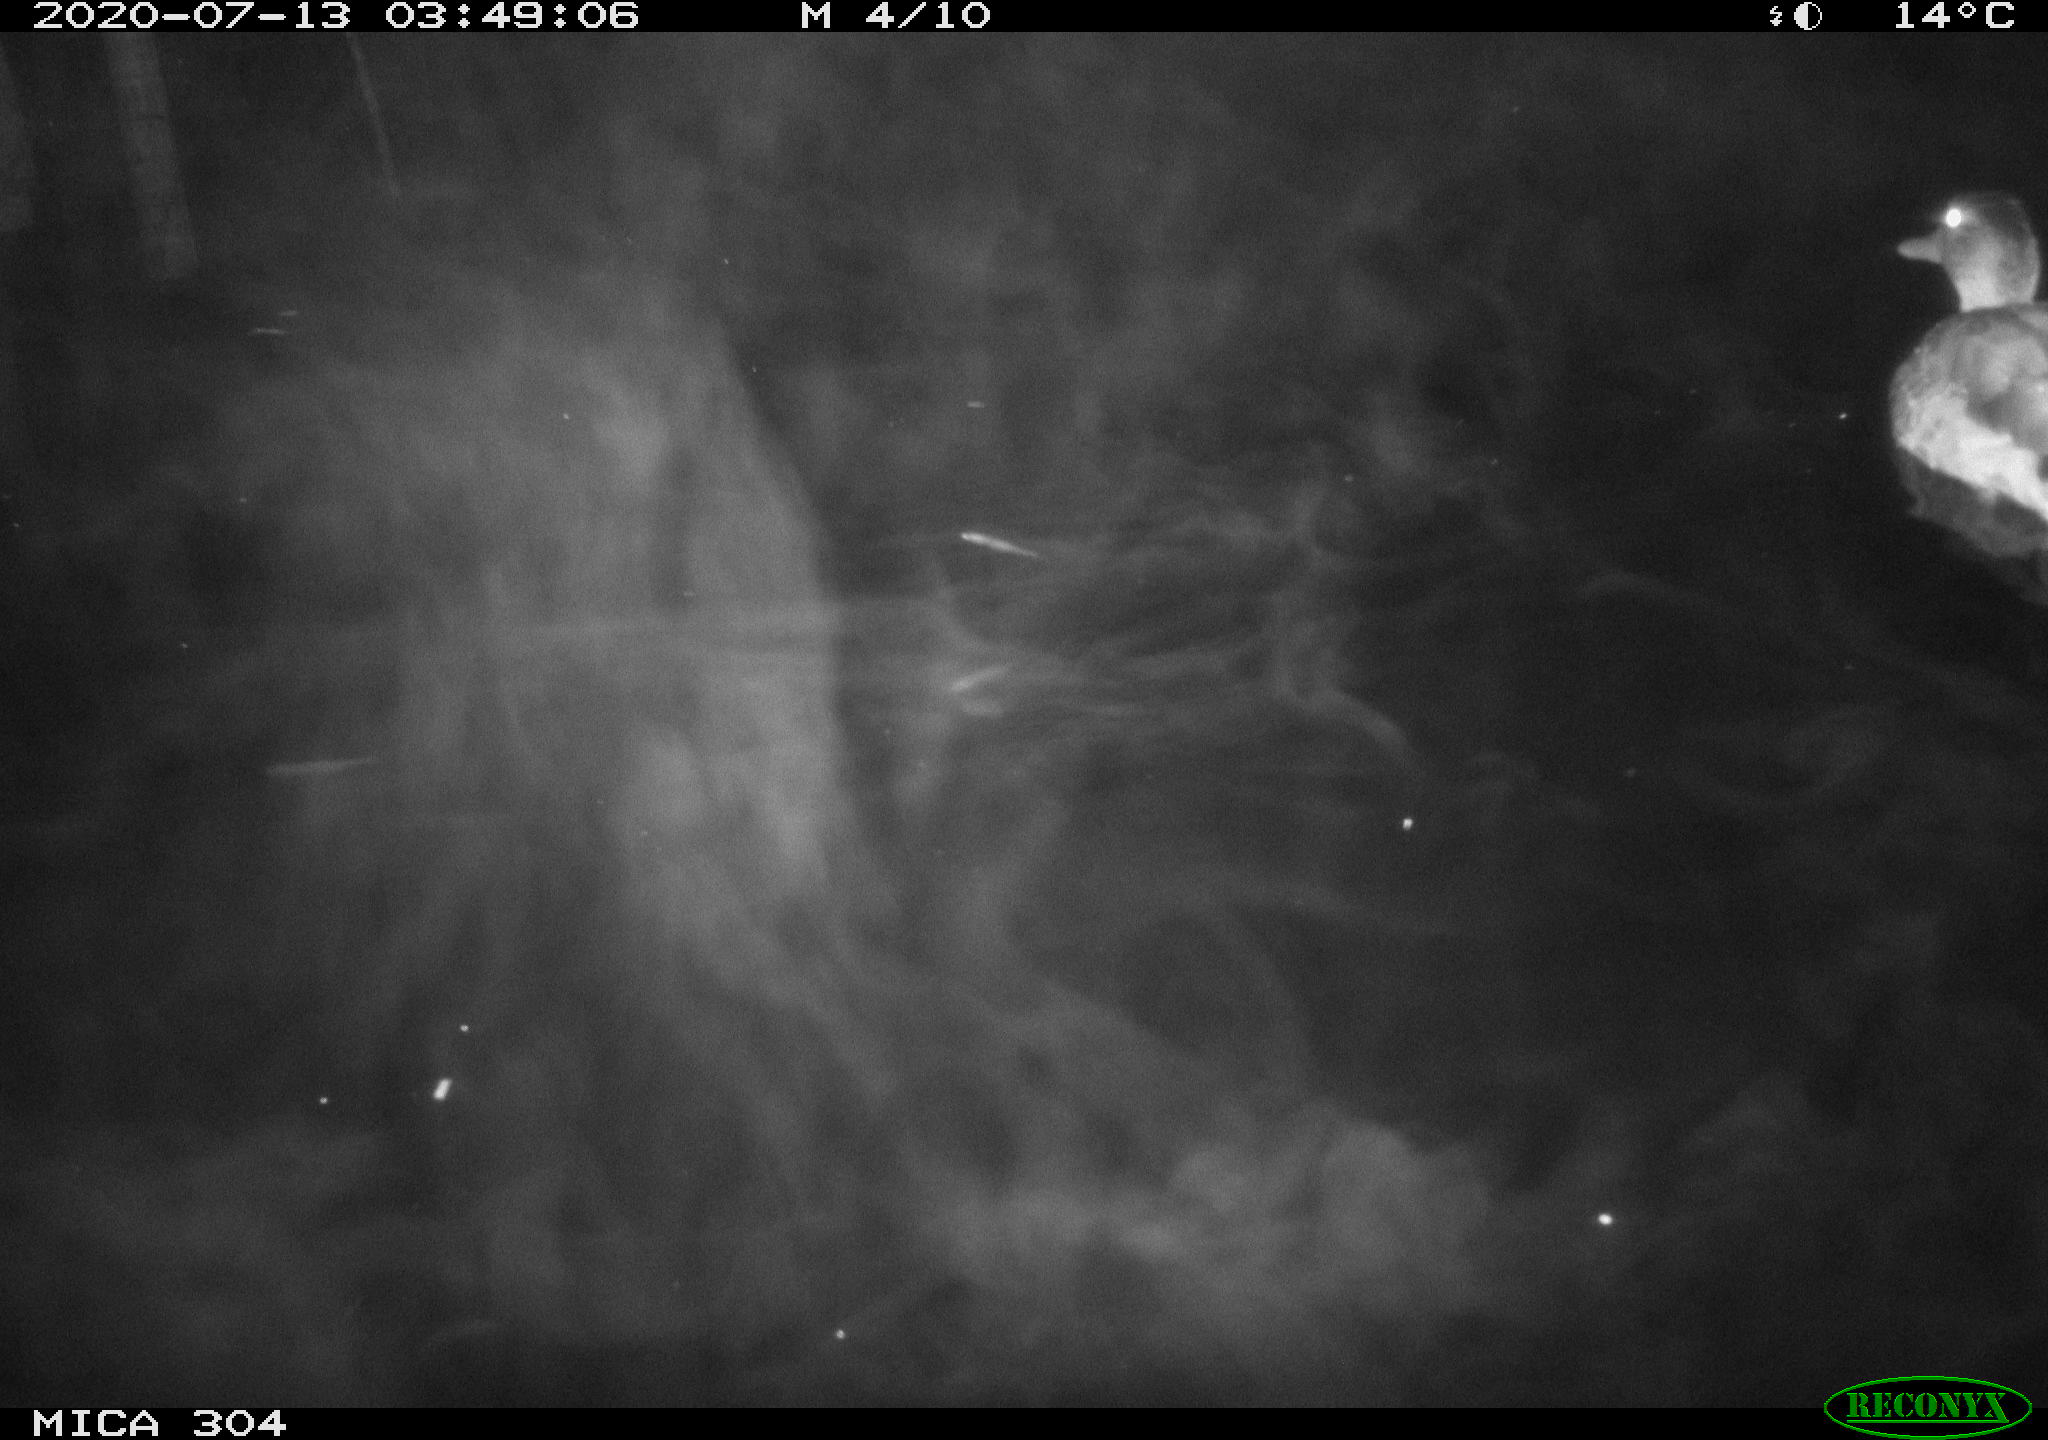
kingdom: Animalia
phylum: Chordata
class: Aves
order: Anseriformes
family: Anatidae
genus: Anas
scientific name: Anas platyrhynchos
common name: Mallard
